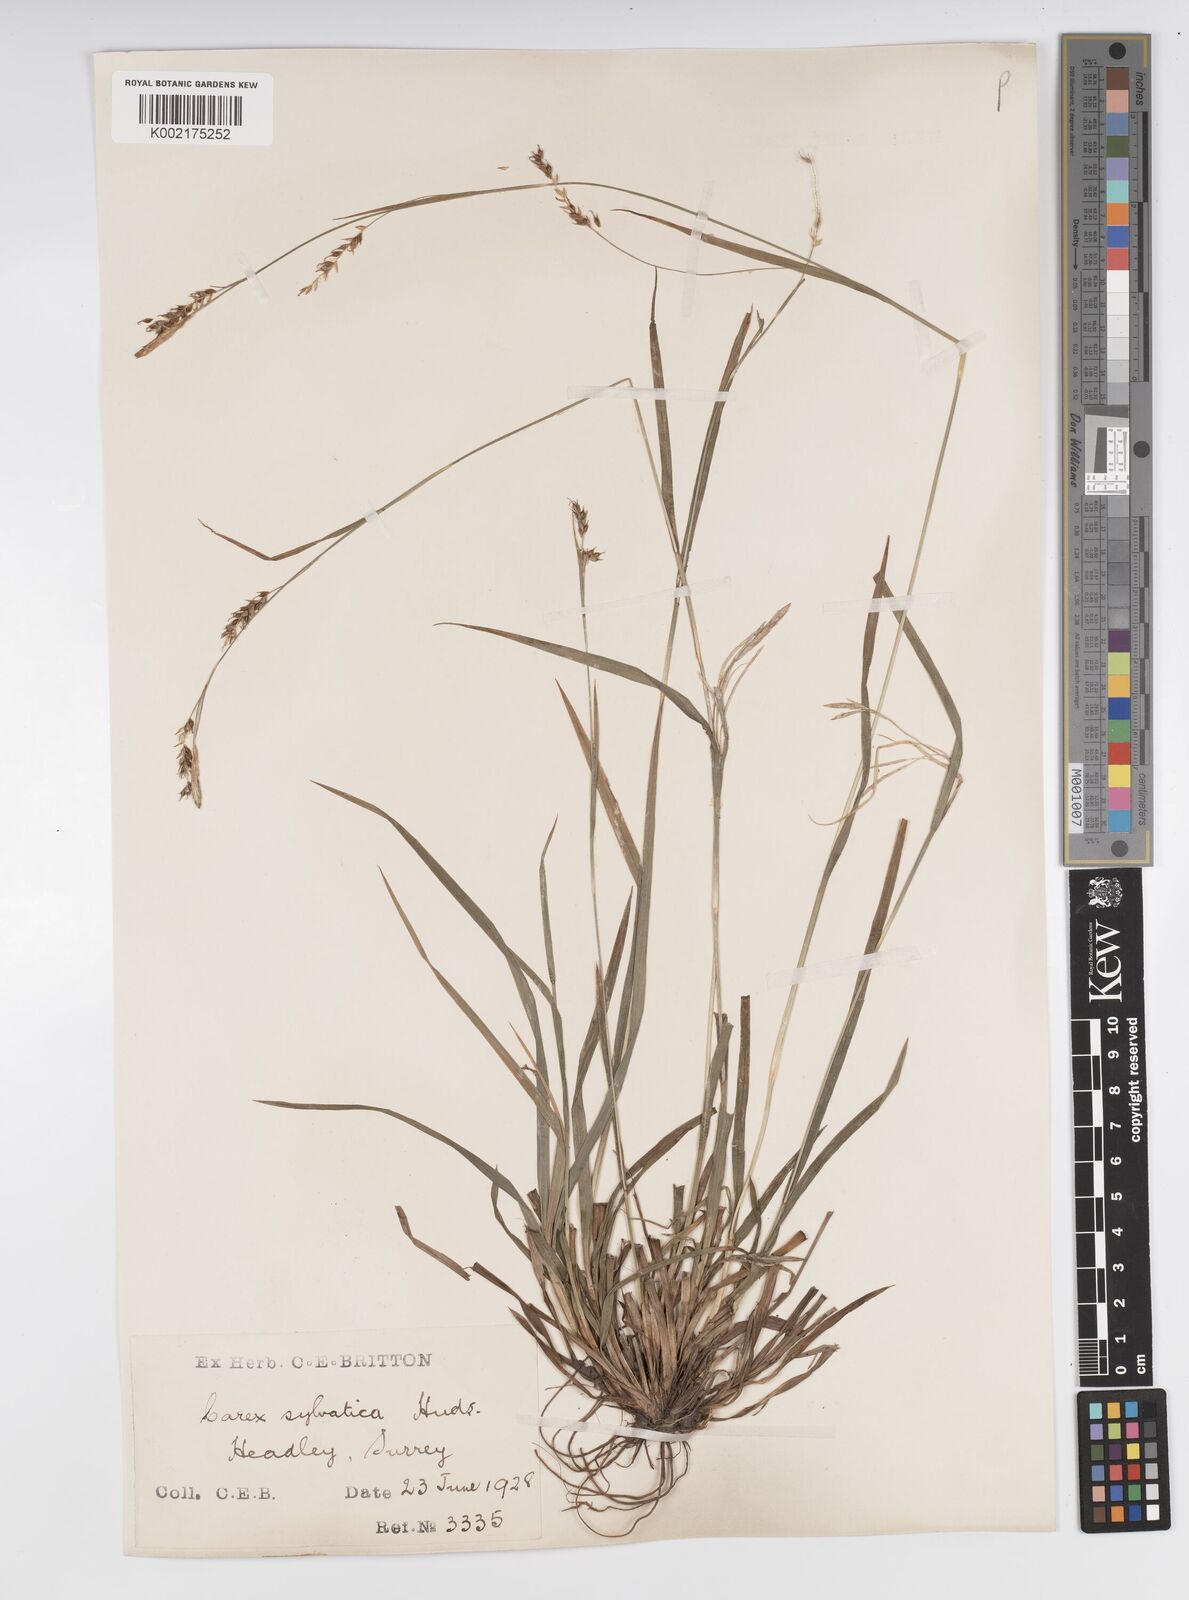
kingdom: Plantae
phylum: Tracheophyta
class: Liliopsida
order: Poales
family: Cyperaceae
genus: Carex
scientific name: Carex sylvatica
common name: Wood-sedge
